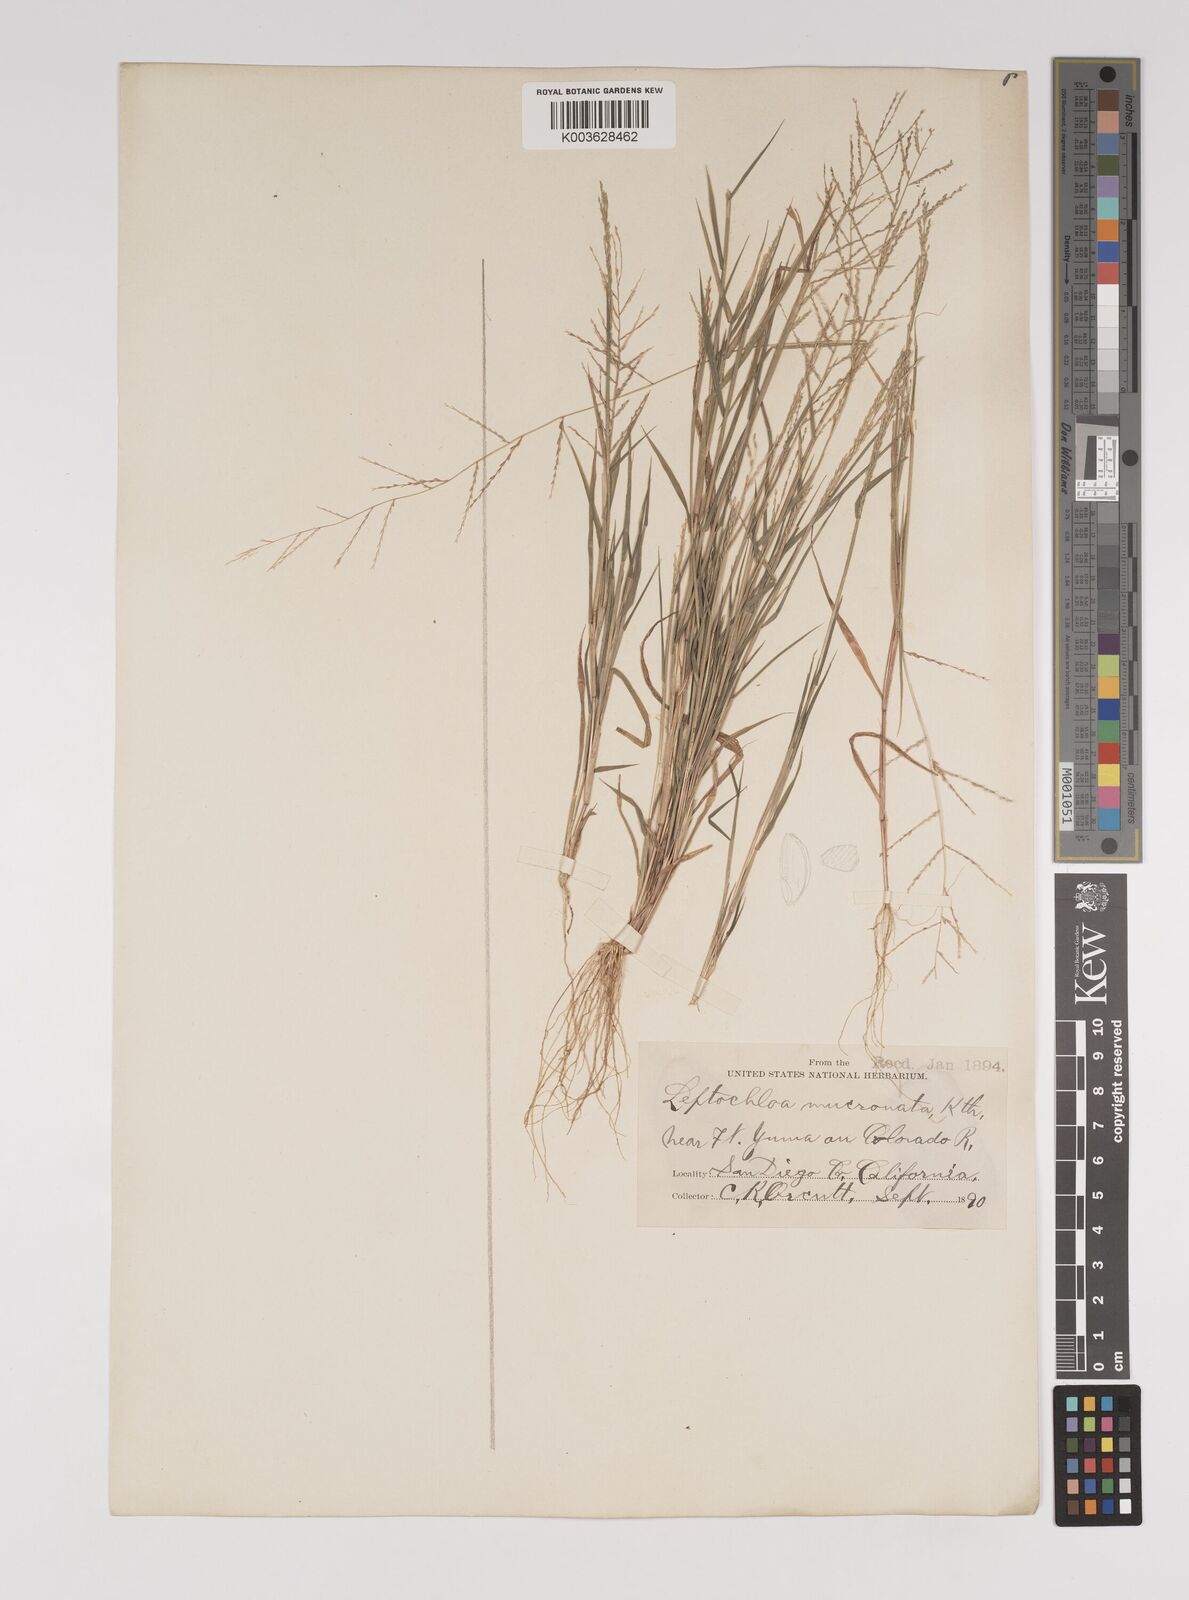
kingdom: Plantae
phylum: Tracheophyta
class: Liliopsida
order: Poales
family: Poaceae
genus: Leptochloa
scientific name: Leptochloa panicea
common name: Mucronate sprangletop
